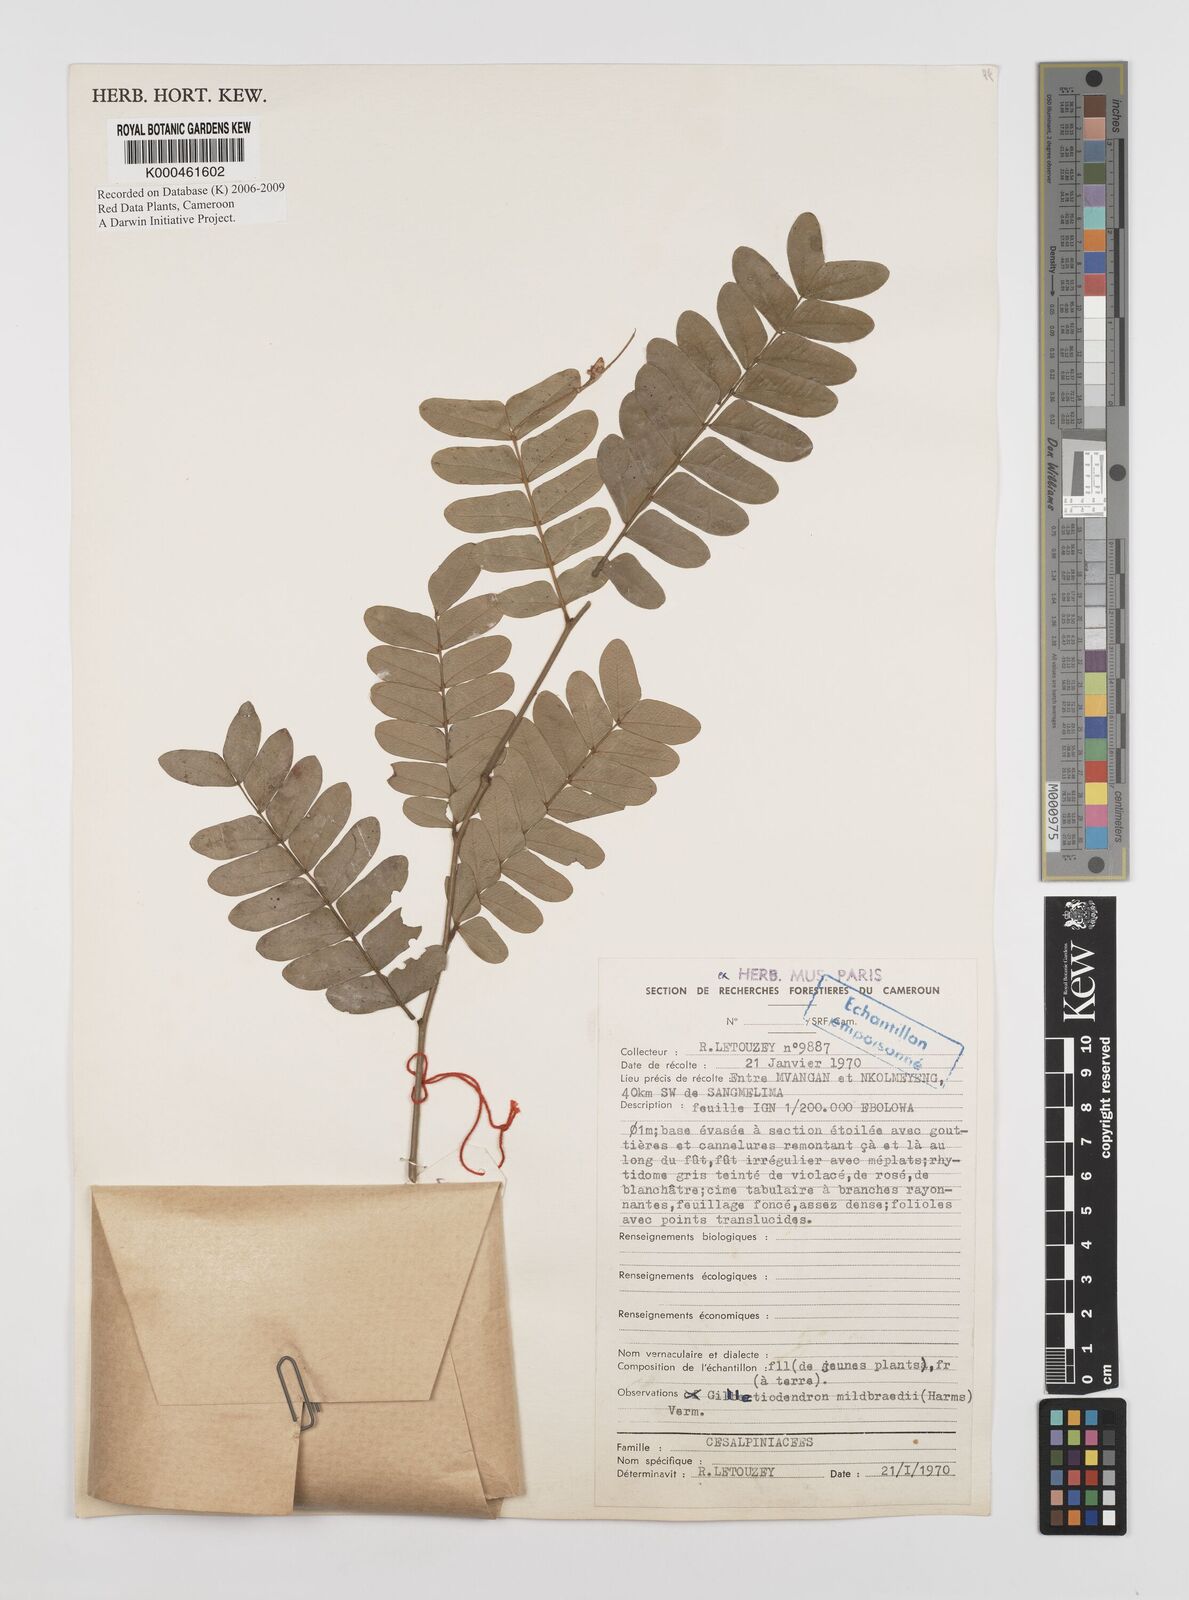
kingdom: Plantae
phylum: Tracheophyta
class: Magnoliopsida
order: Fabales
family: Fabaceae
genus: Gilletiodendron
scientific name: Gilletiodendron mildbraedii
